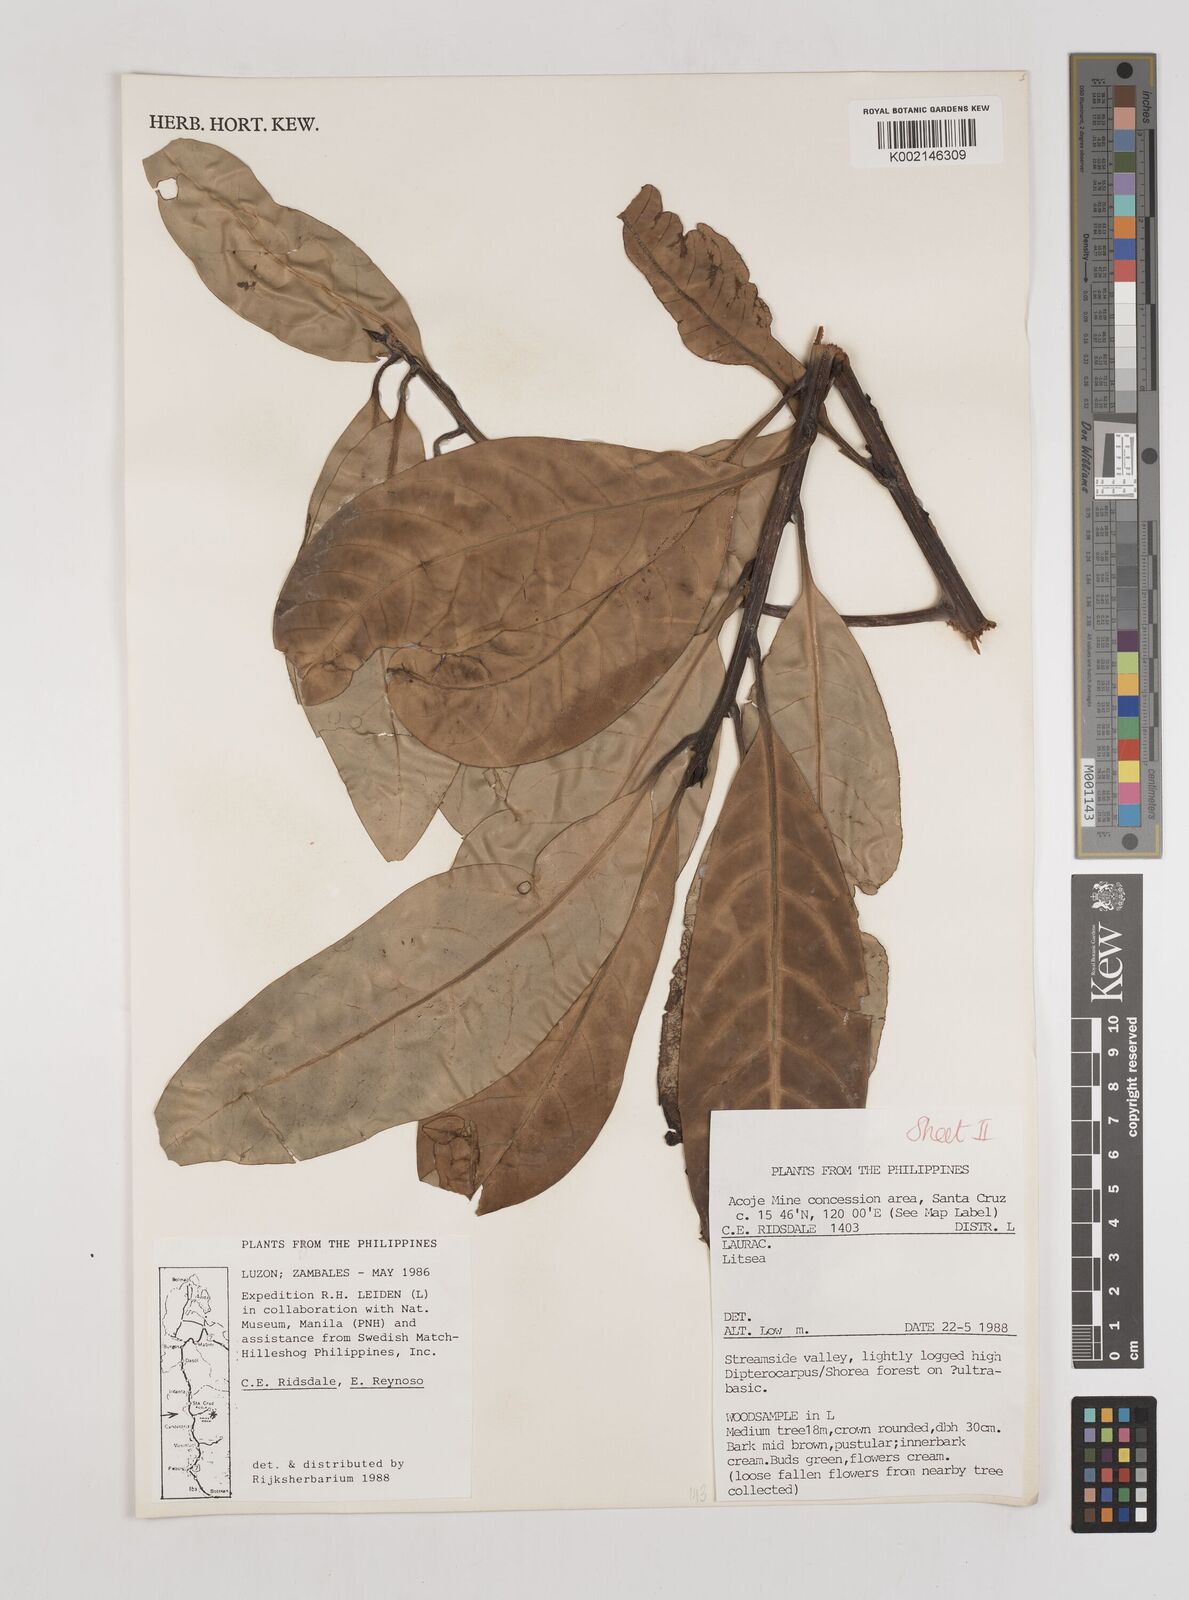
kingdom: Plantae
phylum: Tracheophyta
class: Magnoliopsida
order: Laurales
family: Lauraceae
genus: Litsea
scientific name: Litsea
